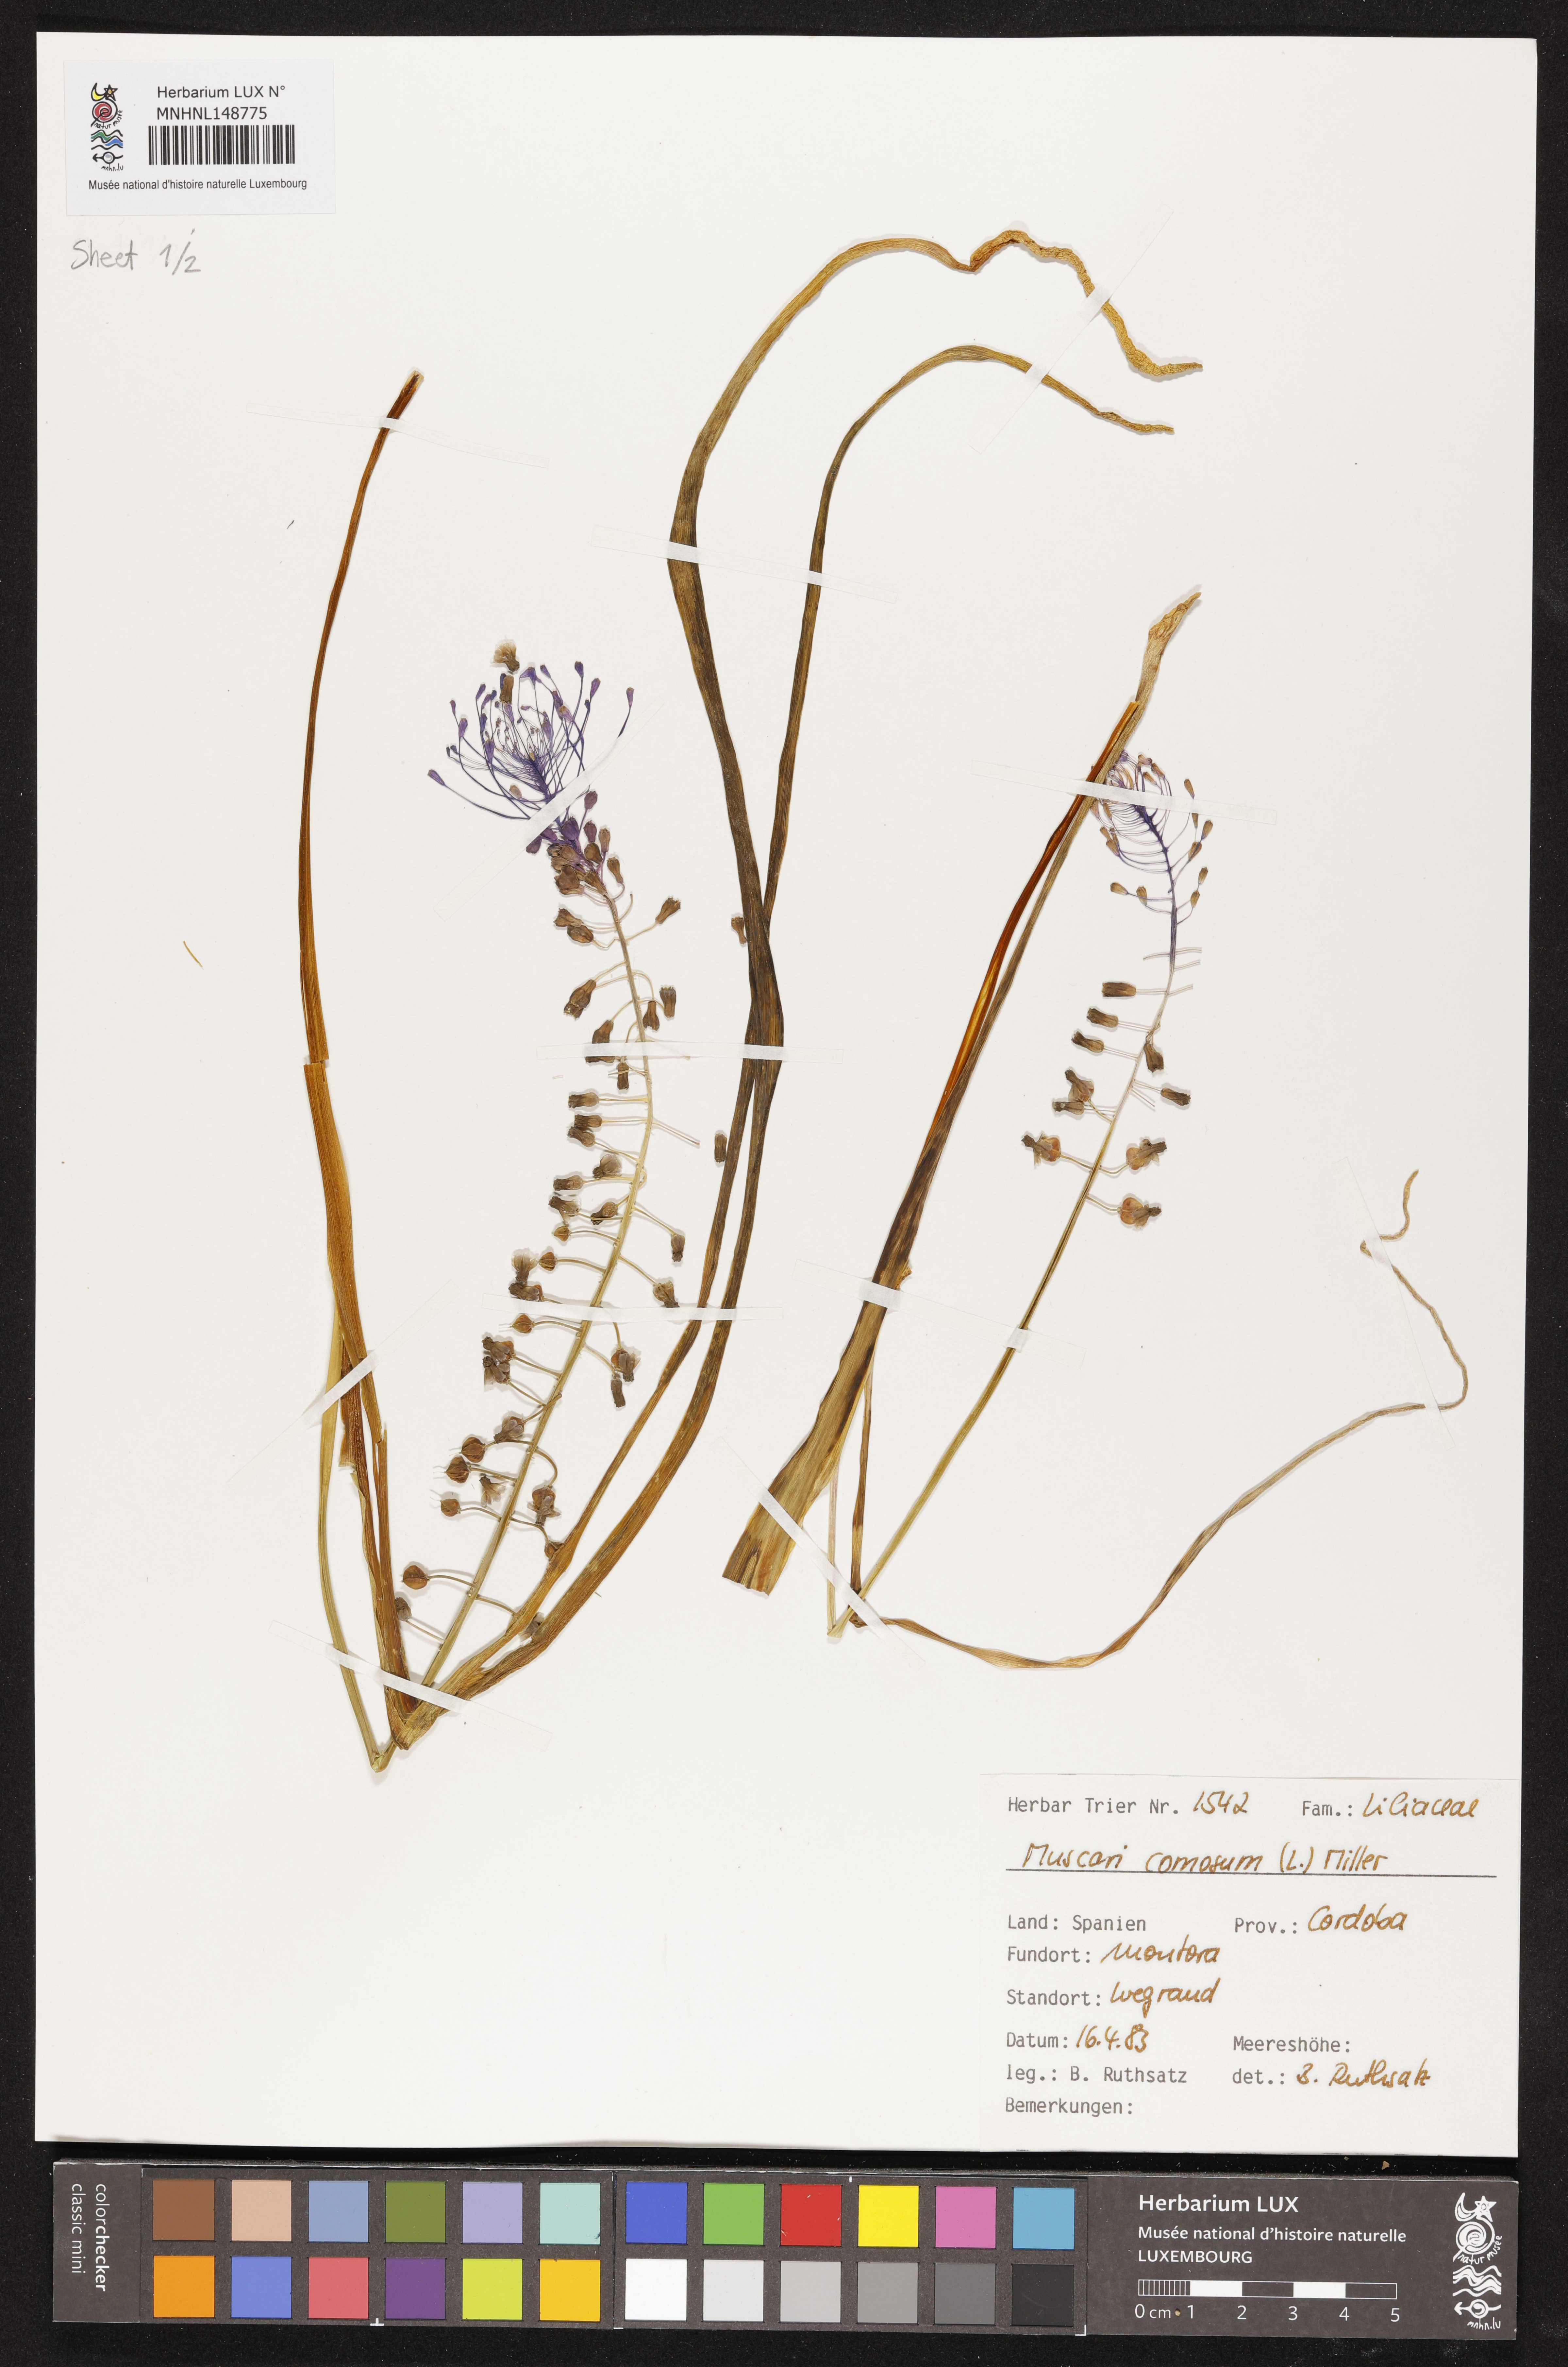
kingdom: Plantae
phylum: Tracheophyta
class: Liliopsida
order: Asparagales
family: Asparagaceae
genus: Muscari
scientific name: Muscari comosum
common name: Tassel hyacinth
